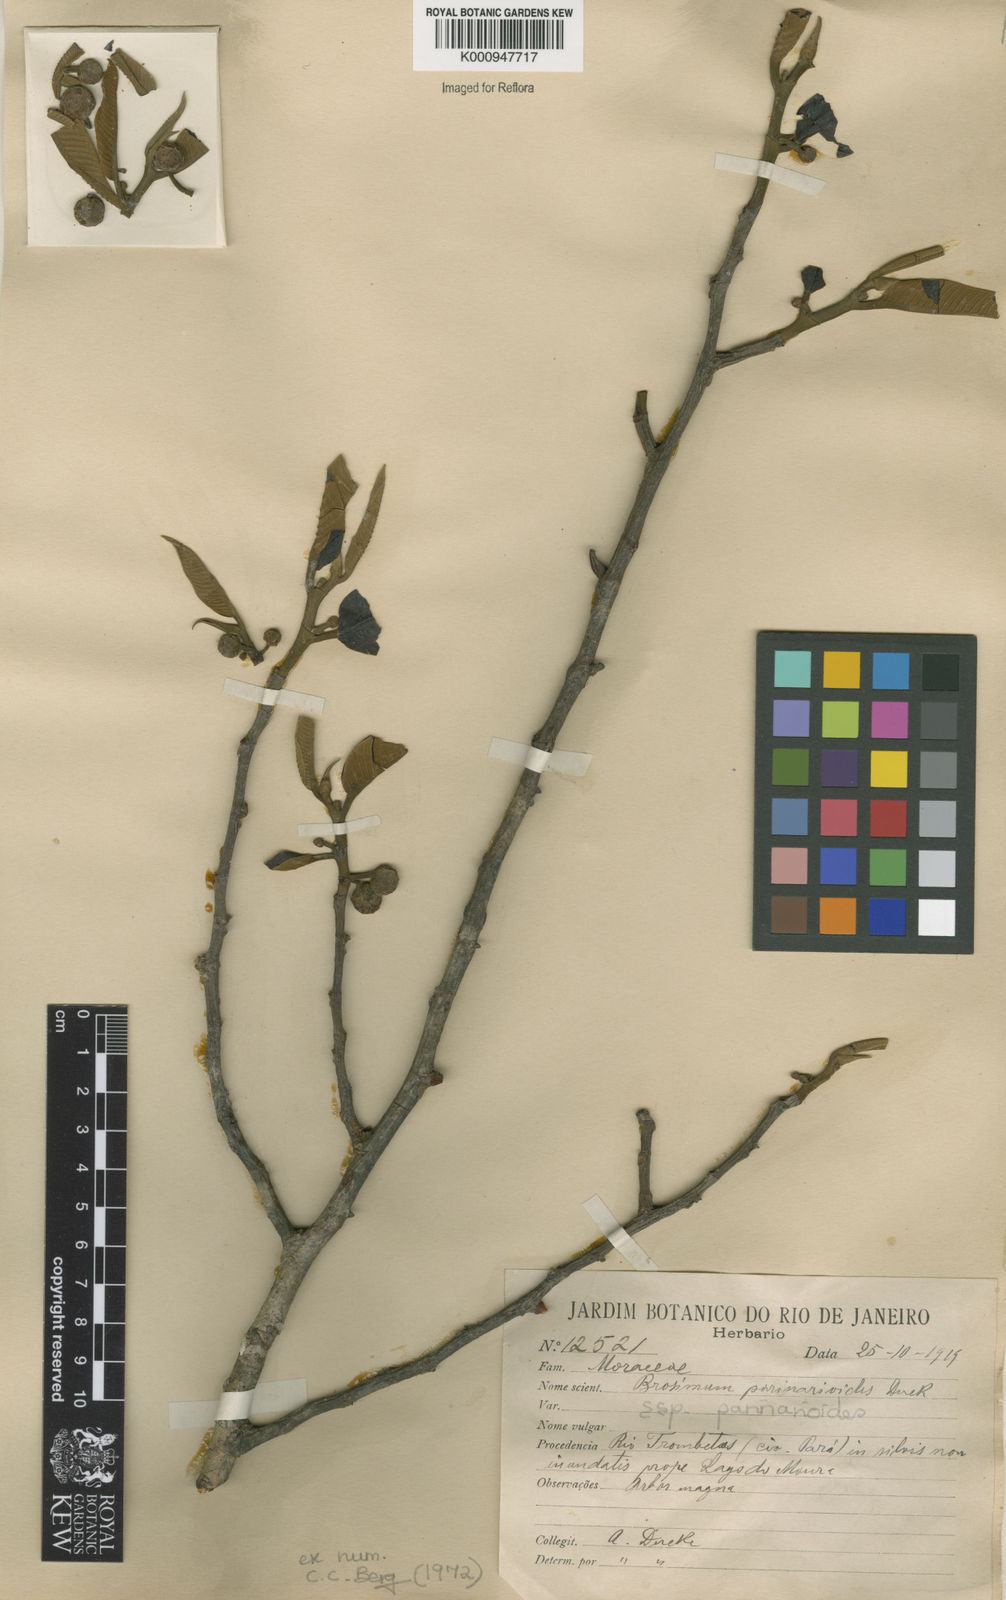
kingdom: Plantae
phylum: Tracheophyta
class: Magnoliopsida
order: Rosales
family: Moraceae
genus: Brosimum
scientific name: Brosimum parinarioides
